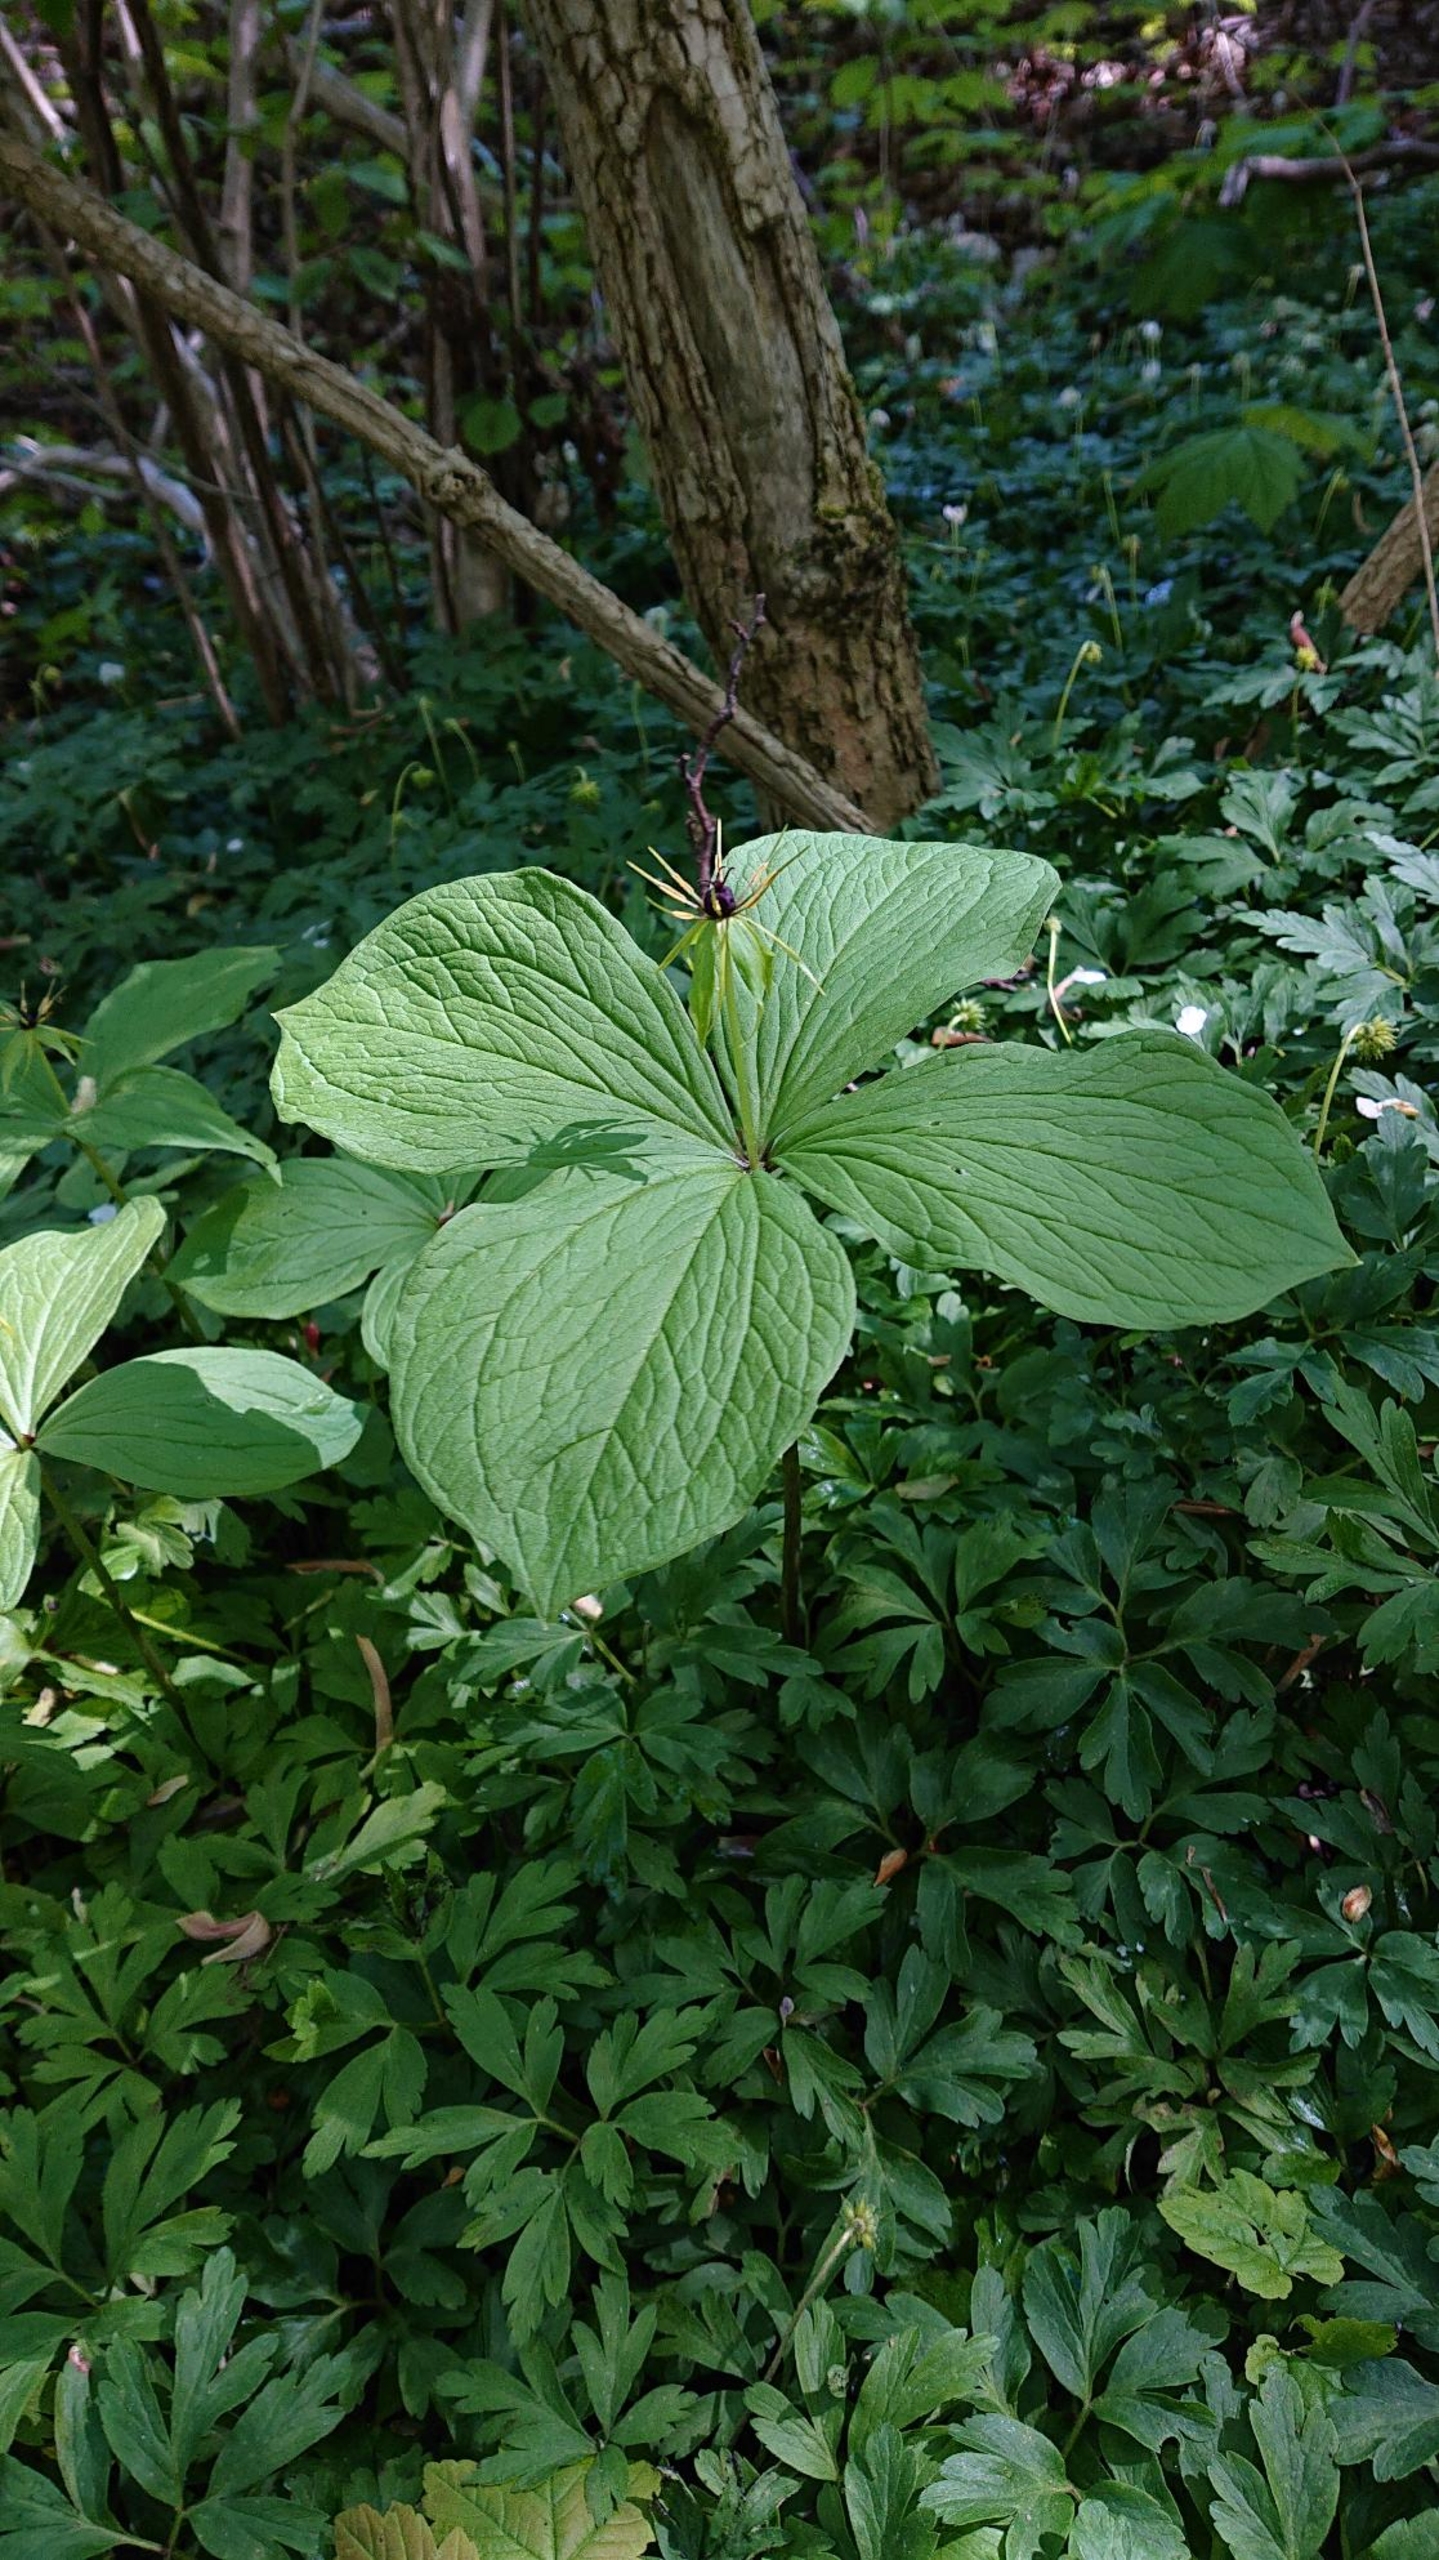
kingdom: Plantae
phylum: Tracheophyta
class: Liliopsida
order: Liliales
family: Melanthiaceae
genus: Paris
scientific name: Paris quadrifolia
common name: Firblad
